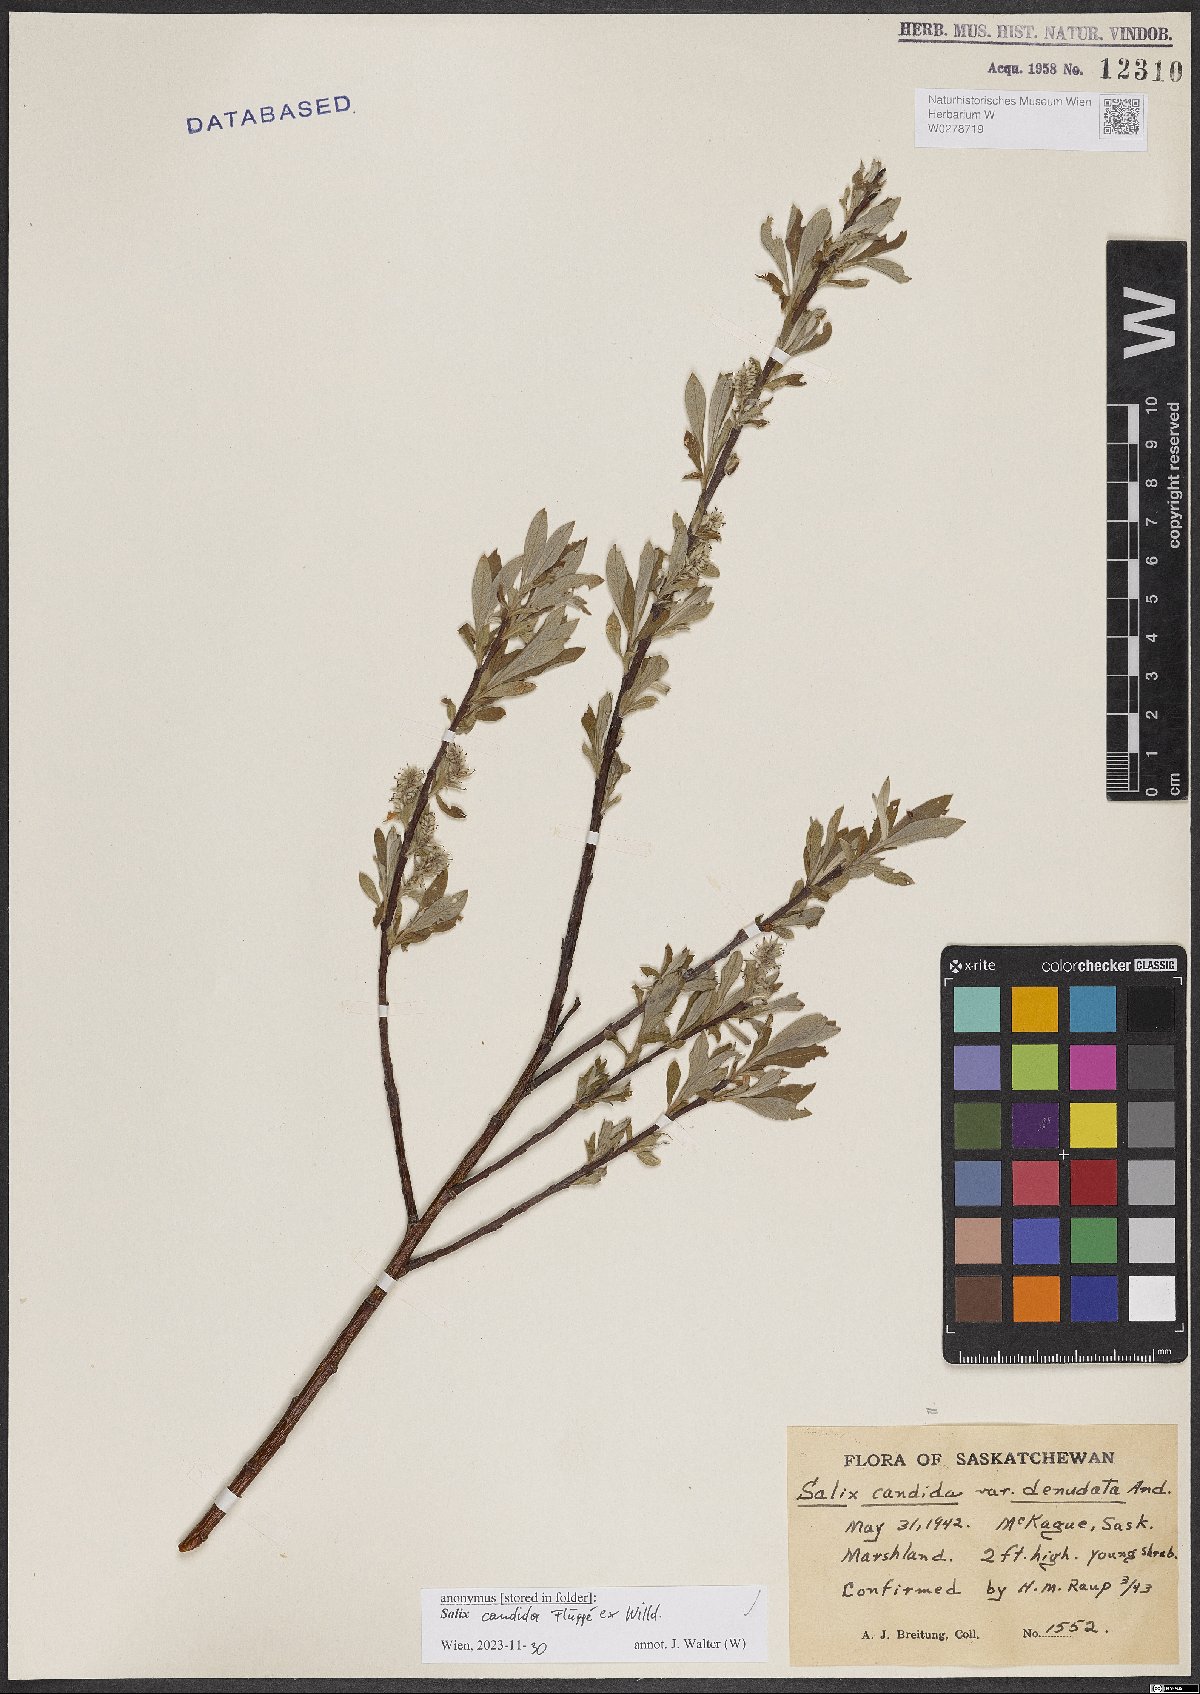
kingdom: Plantae
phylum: Tracheophyta
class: Magnoliopsida
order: Malpighiales
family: Salicaceae
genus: Salix
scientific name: Salix candida
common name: Hoary willow
